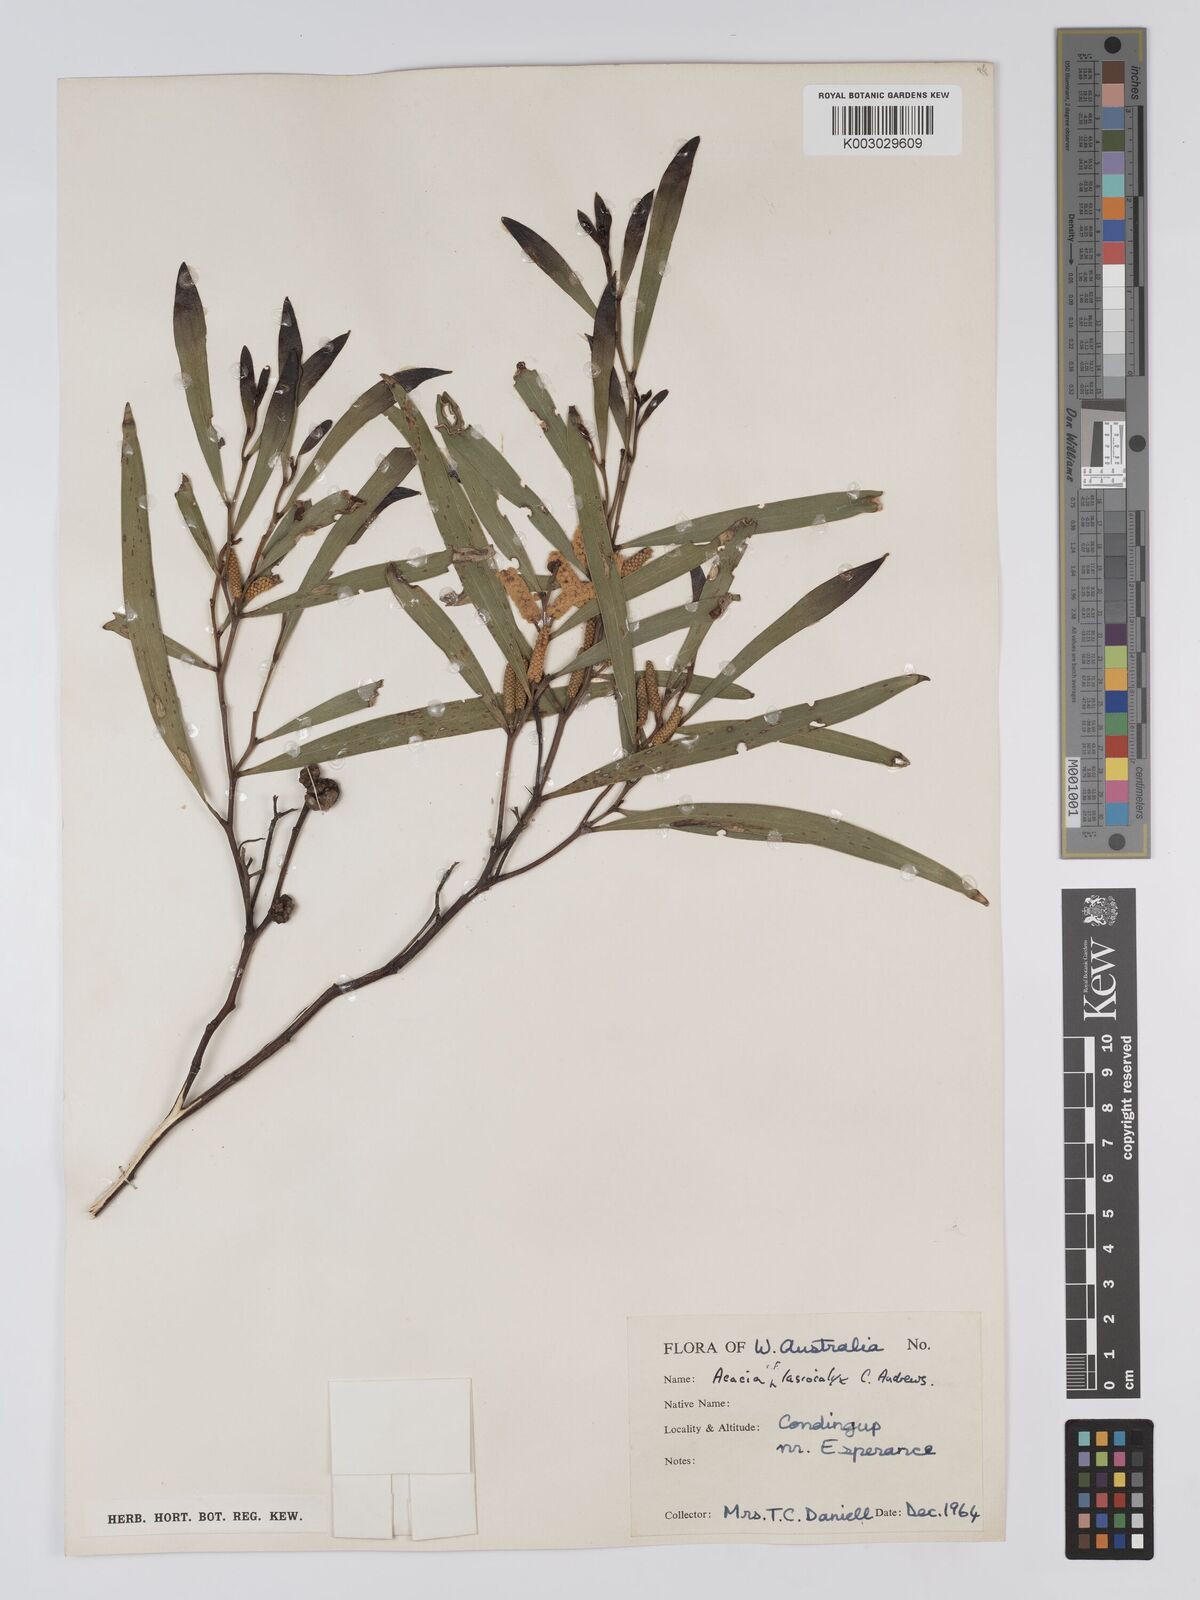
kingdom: Plantae
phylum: Tracheophyta
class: Magnoliopsida
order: Fabales
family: Fabaceae
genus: Acacia
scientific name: Acacia conniana
